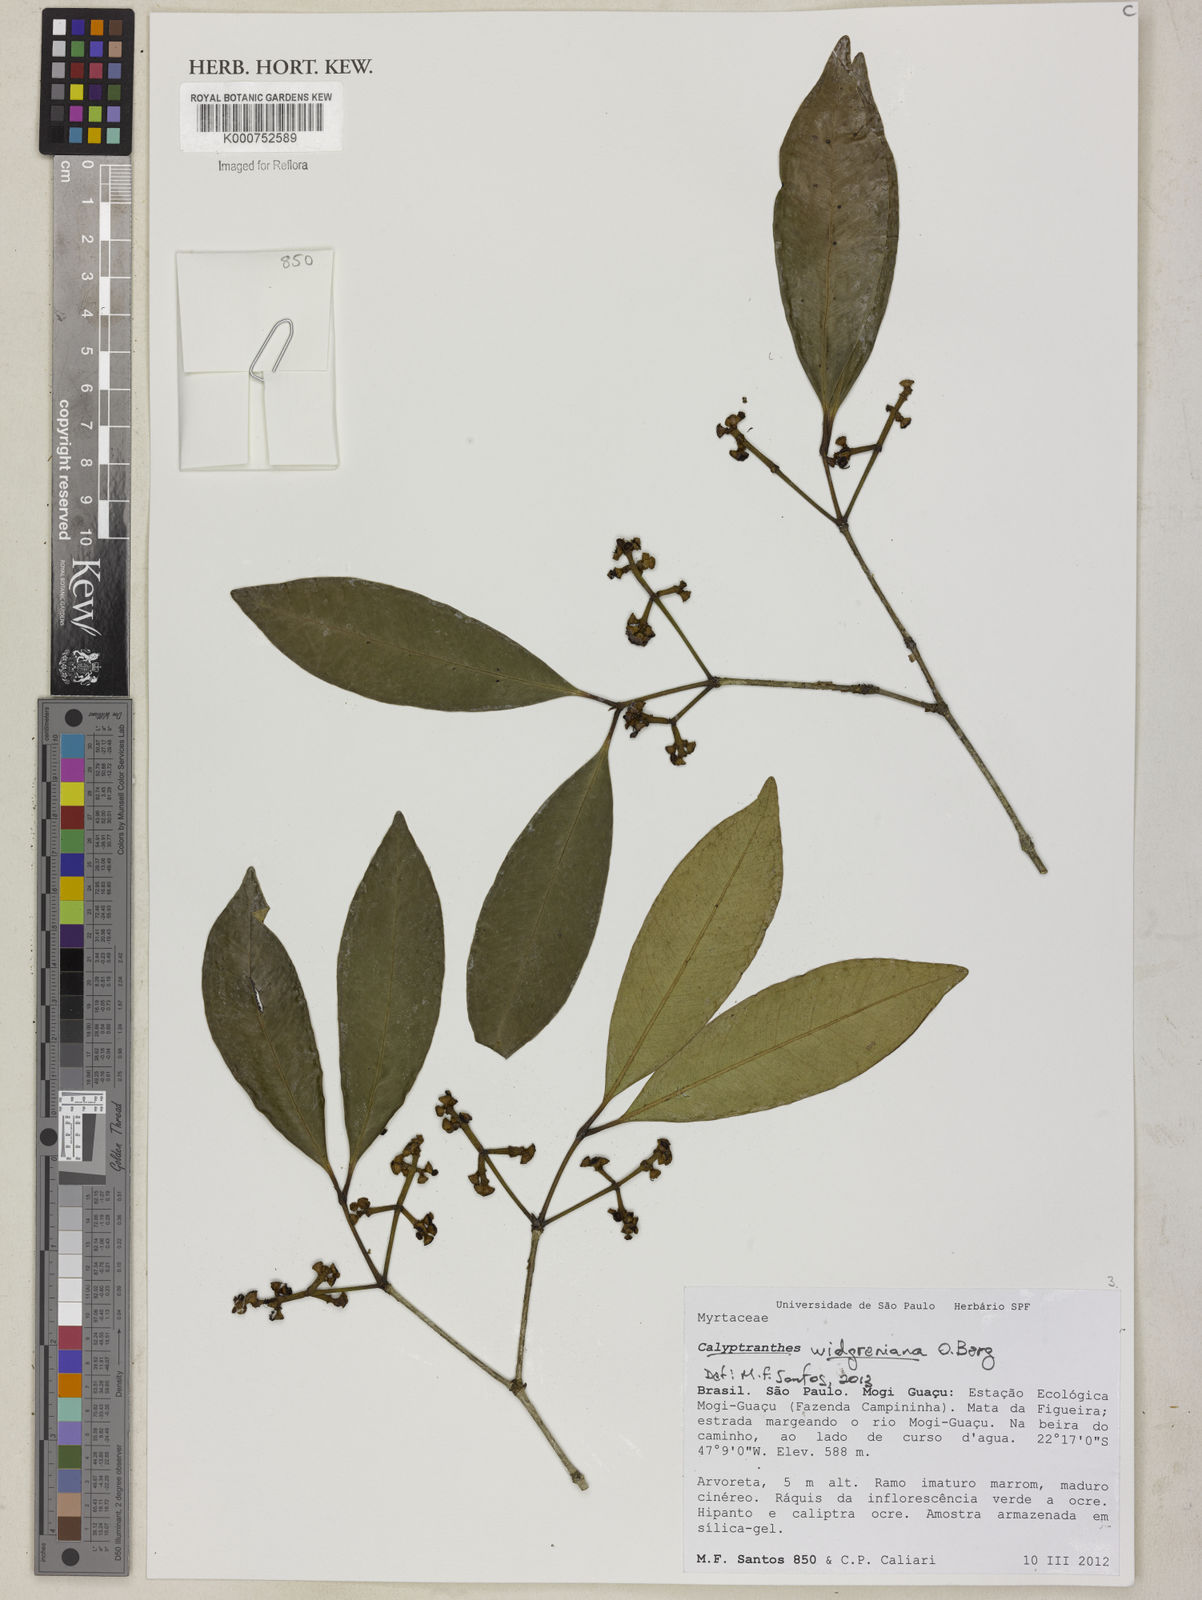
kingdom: Plantae
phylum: Tracheophyta
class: Magnoliopsida
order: Myrtales
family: Myrtaceae
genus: Calyptranthes
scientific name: Calyptranthes widgreniana
